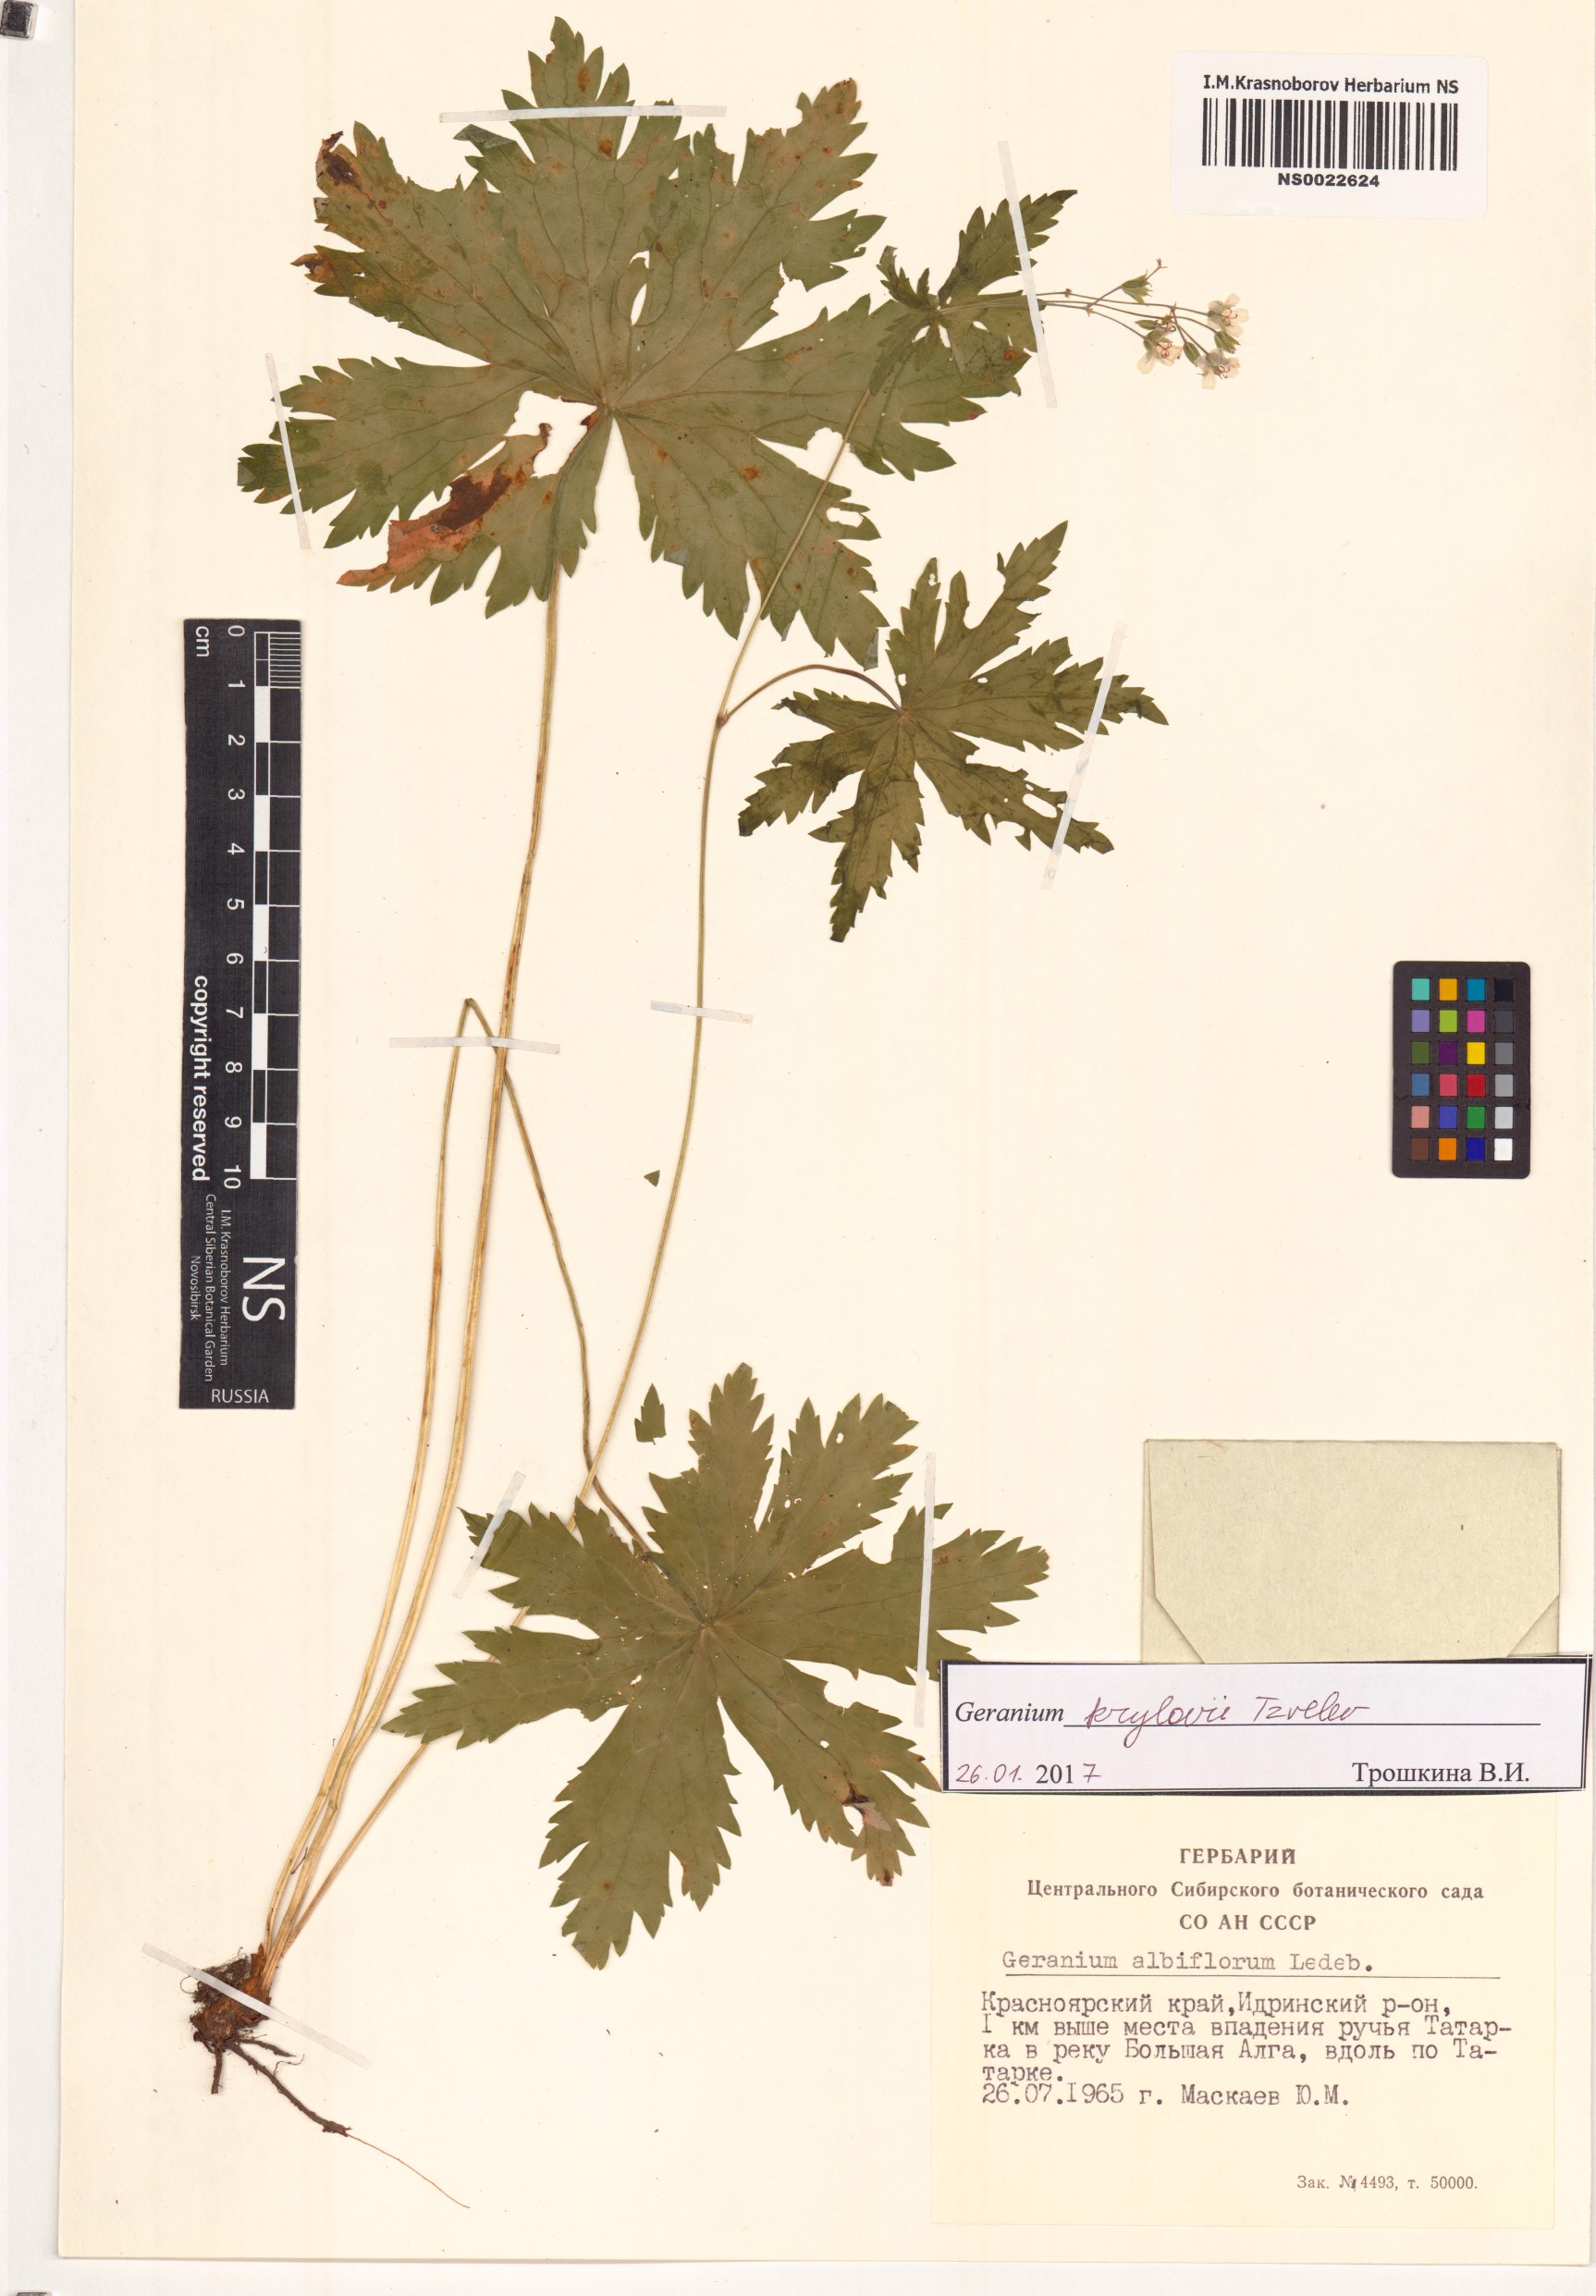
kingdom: Plantae
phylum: Tracheophyta
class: Magnoliopsida
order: Geraniales
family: Geraniaceae
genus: Geranium
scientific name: Geranium sylvaticum
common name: Wood crane's-bill
